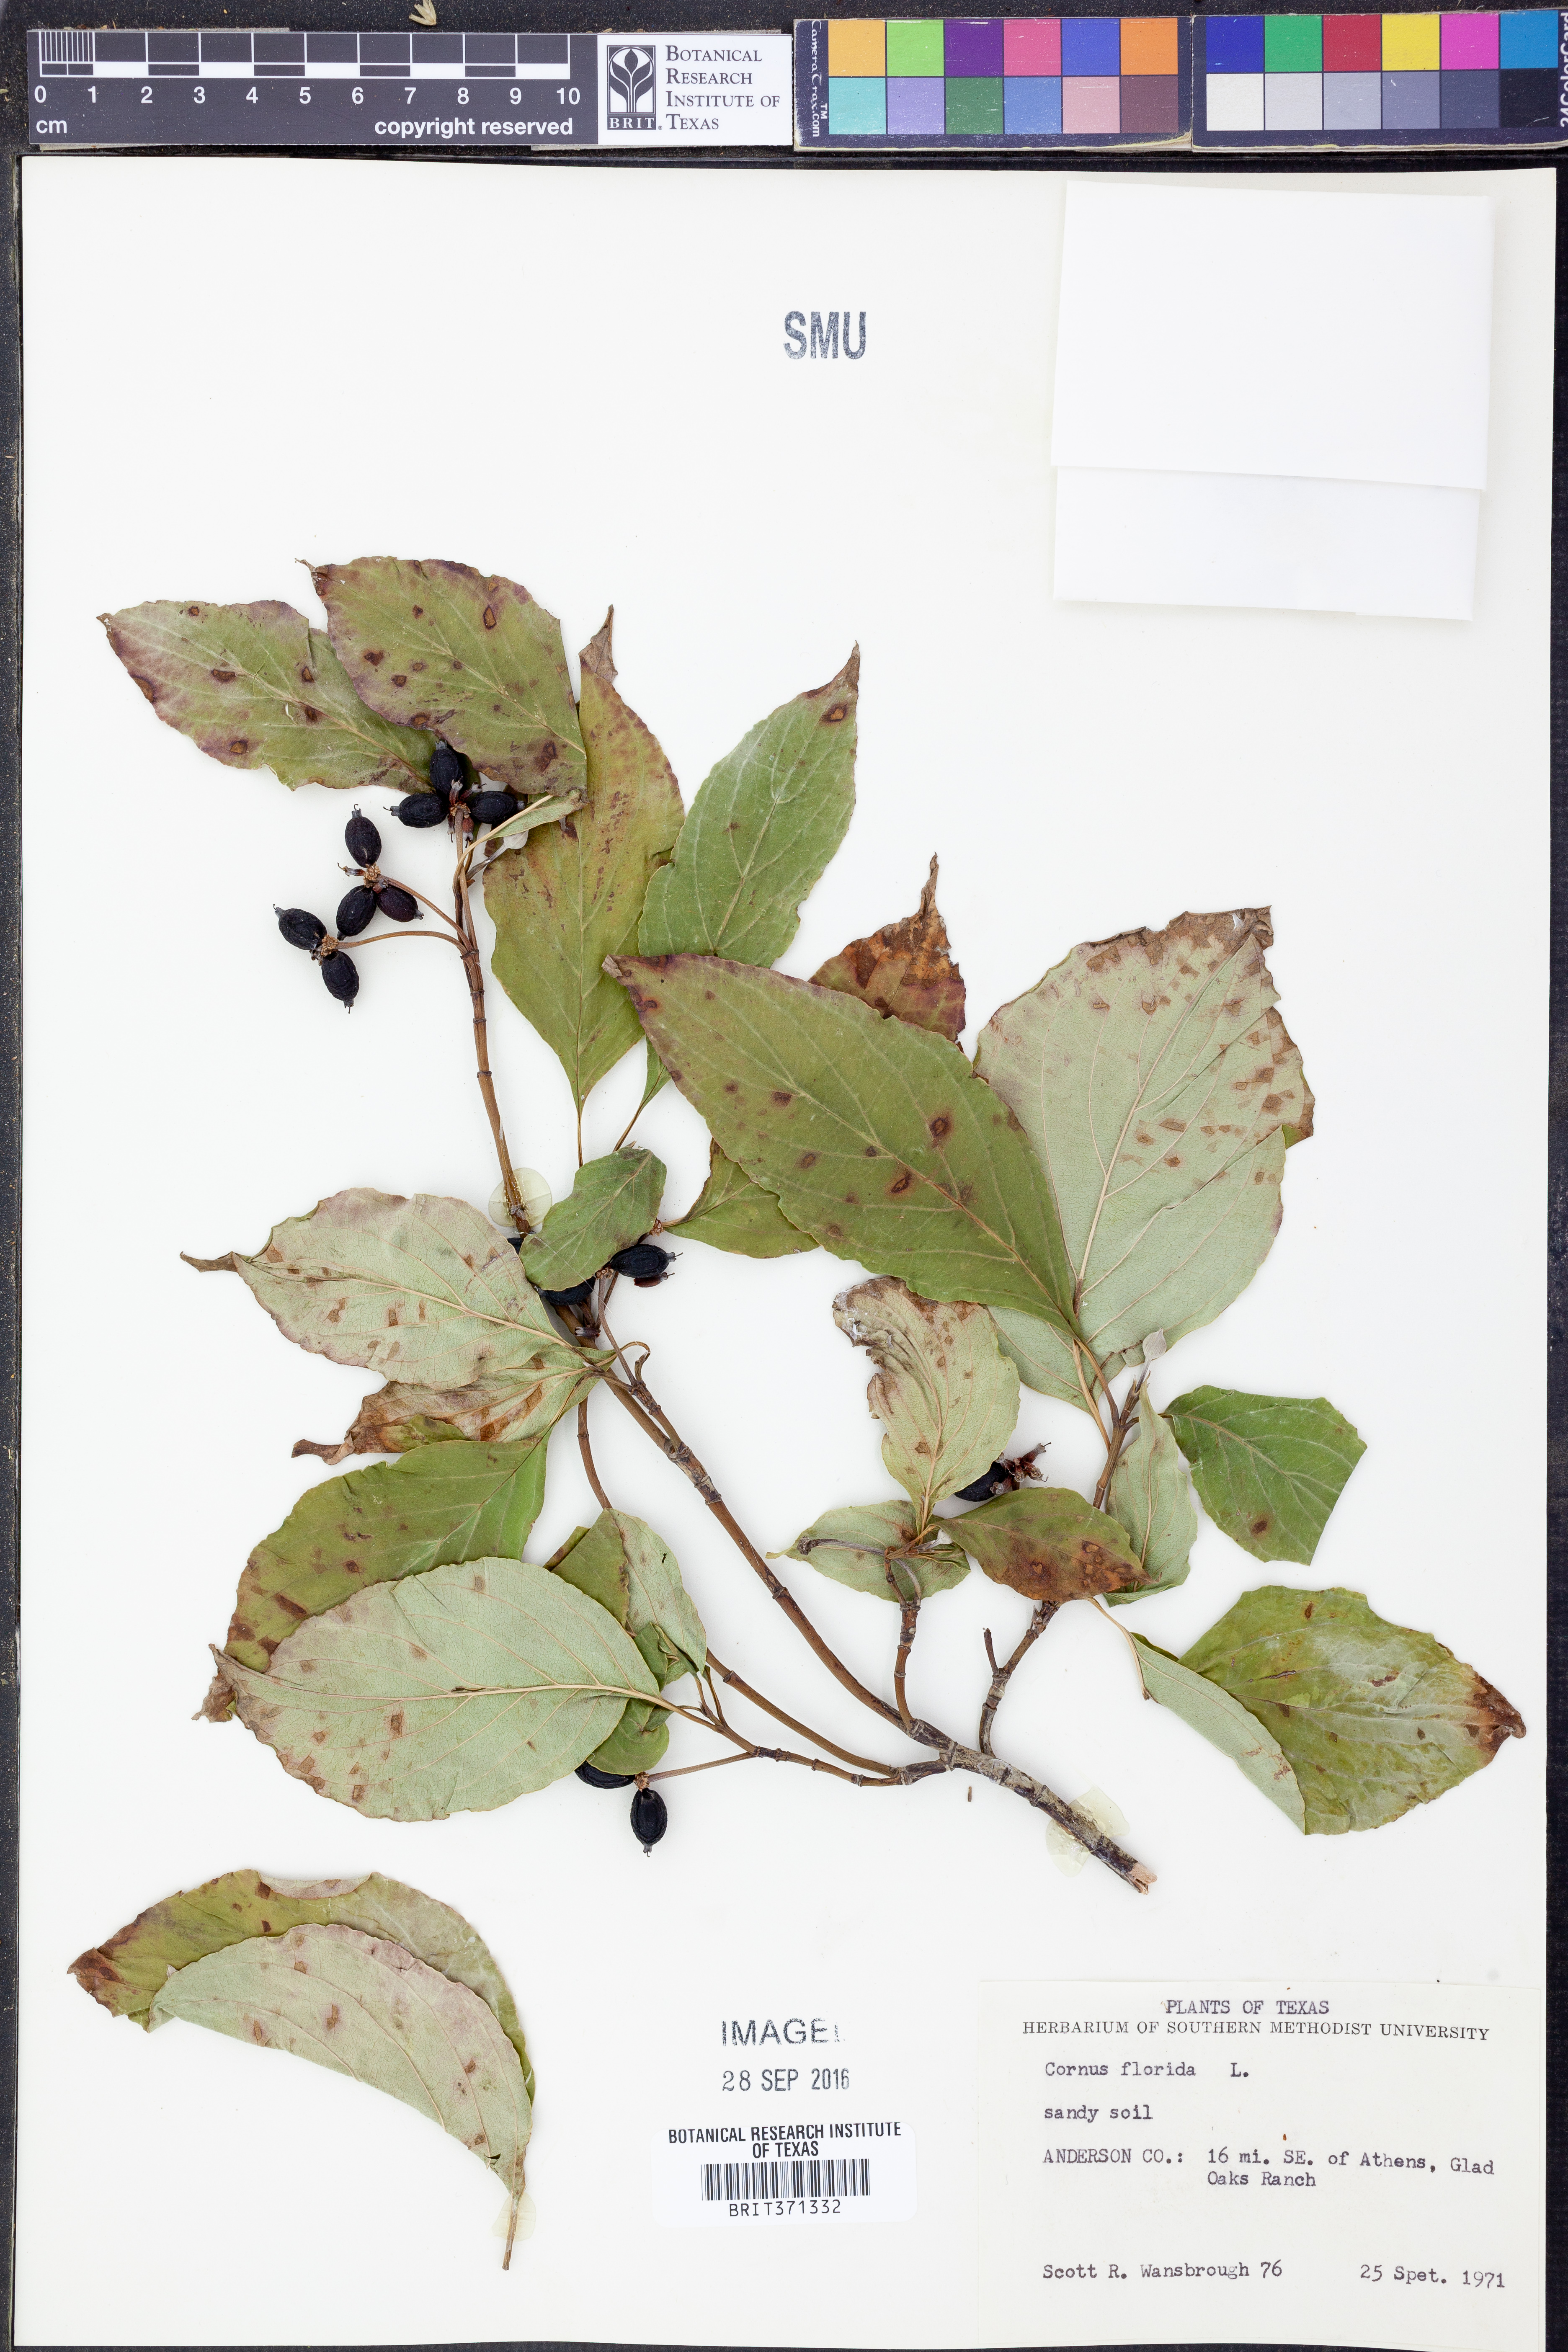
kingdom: Plantae
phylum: Tracheophyta
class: Magnoliopsida
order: Cornales
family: Cornaceae
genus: Cornus
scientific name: Cornus florida
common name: Flowering dogwood
